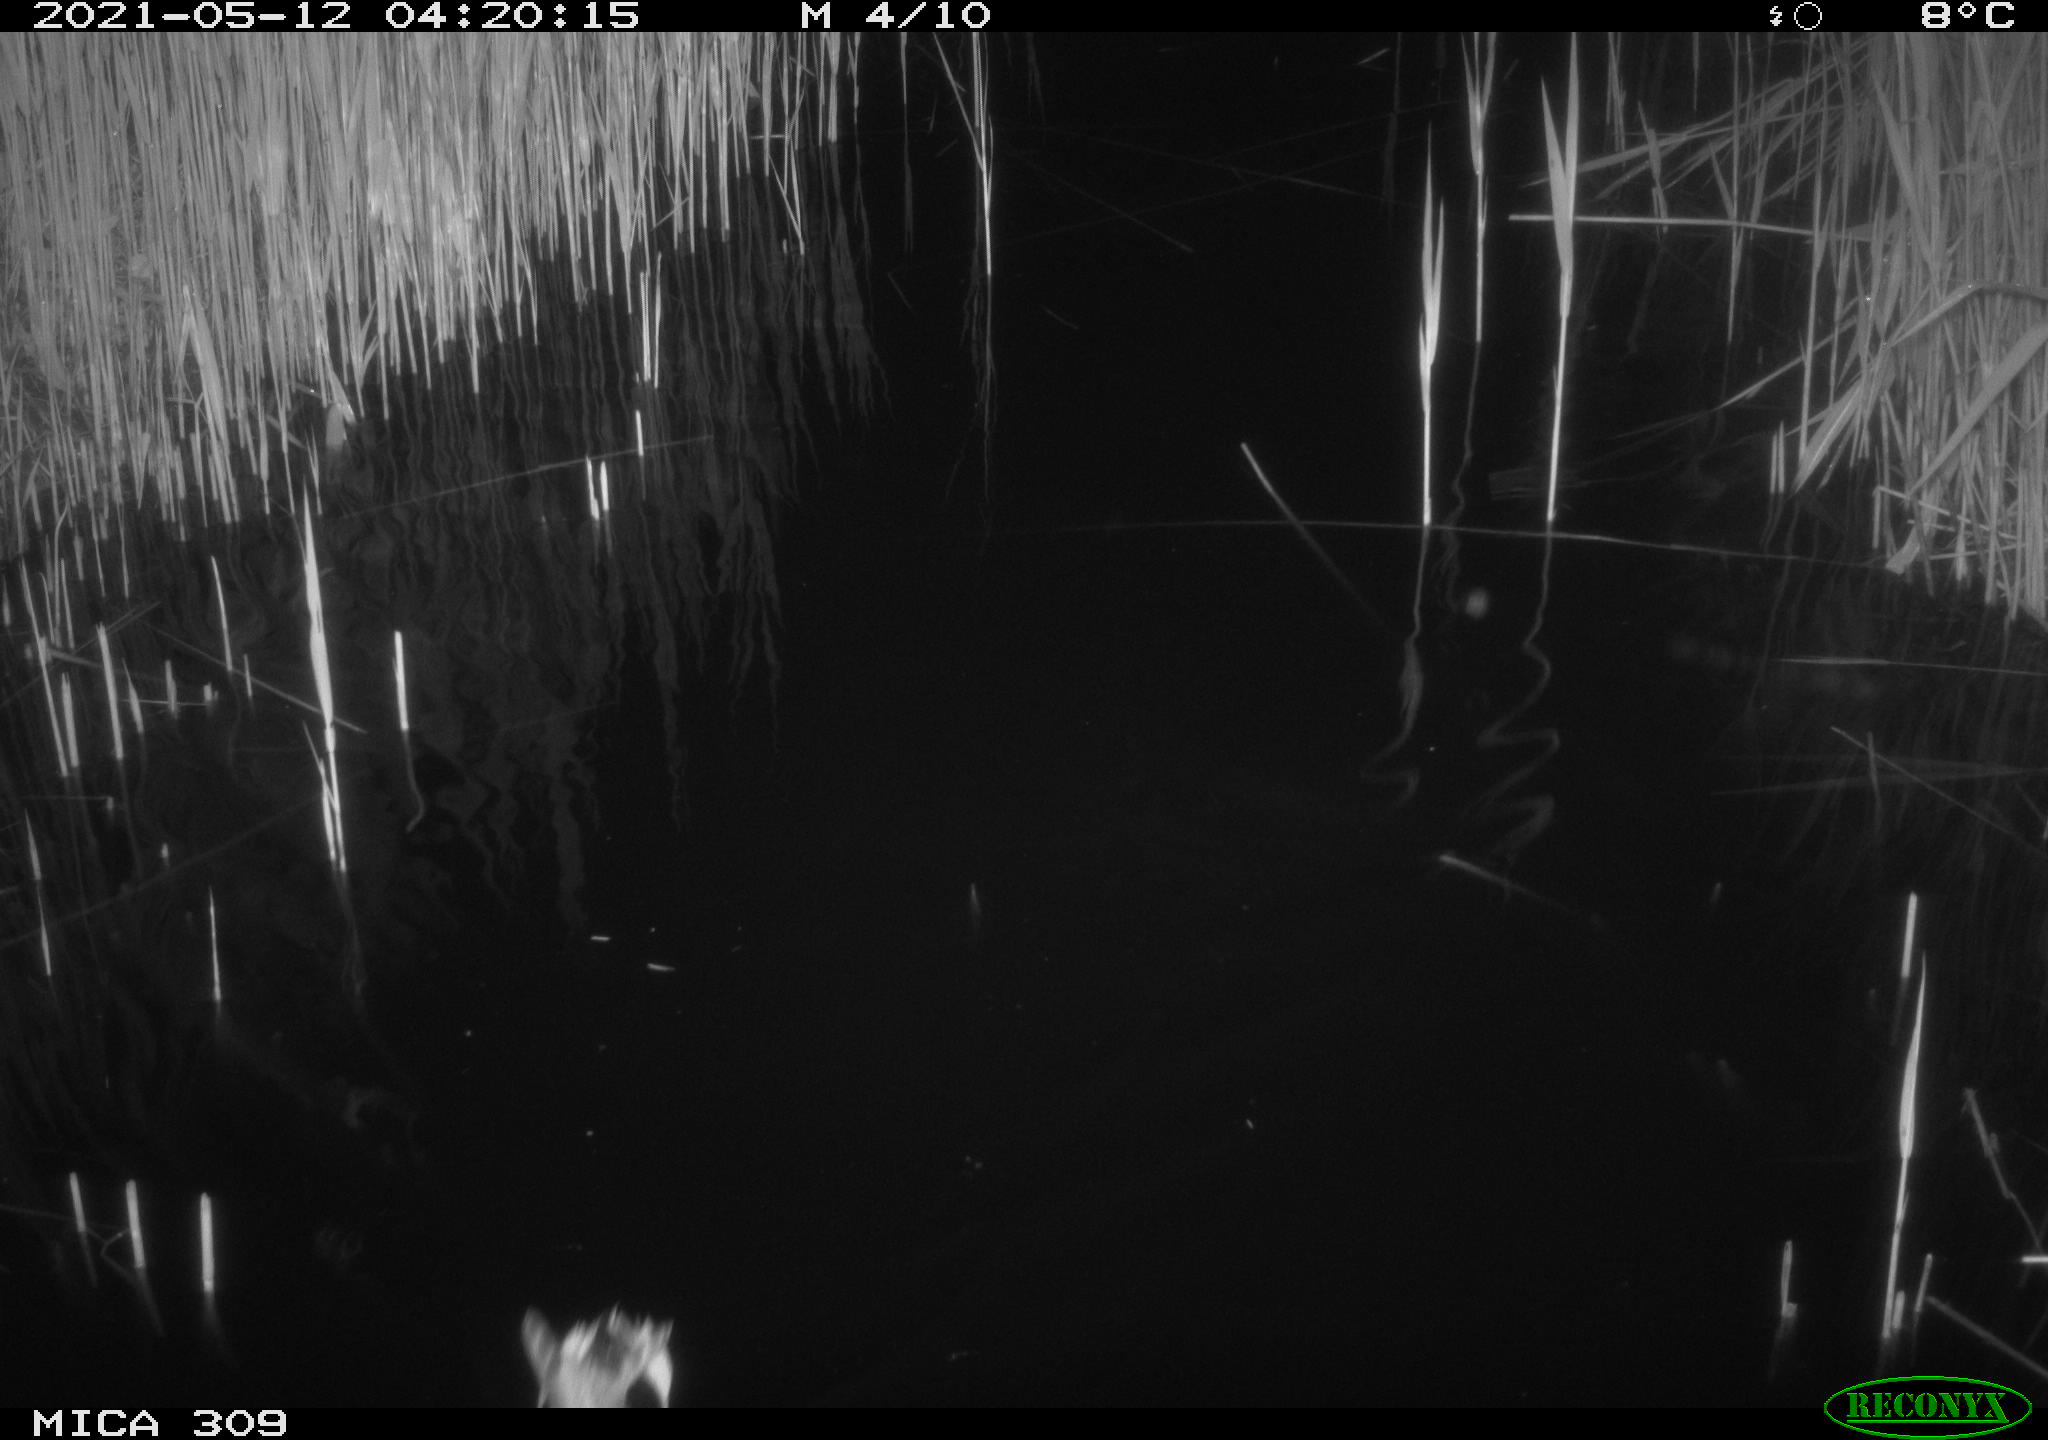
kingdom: Animalia
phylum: Chordata
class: Aves
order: Anseriformes
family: Anatidae
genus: Anas
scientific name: Anas platyrhynchos
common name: Mallard
